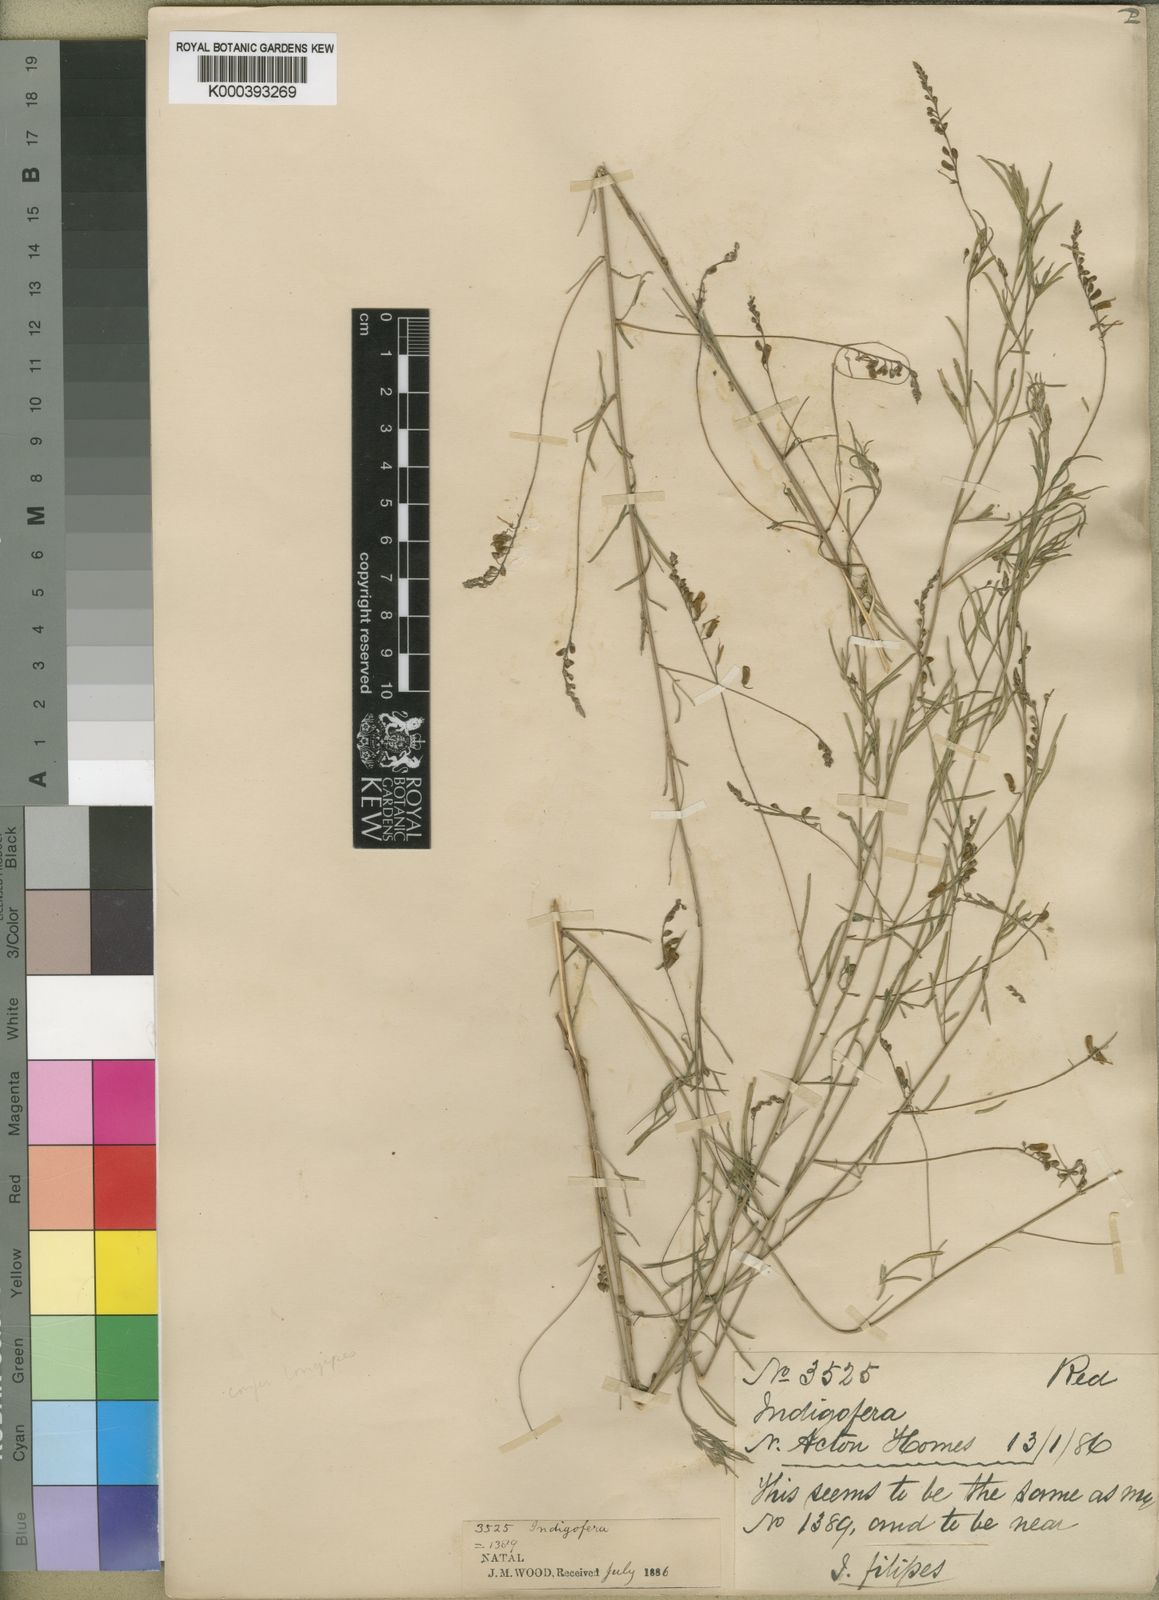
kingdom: Plantae
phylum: Tracheophyta
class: Magnoliopsida
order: Fabales
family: Fabaceae
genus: Indigofera
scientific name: Indigofera tenuissima
